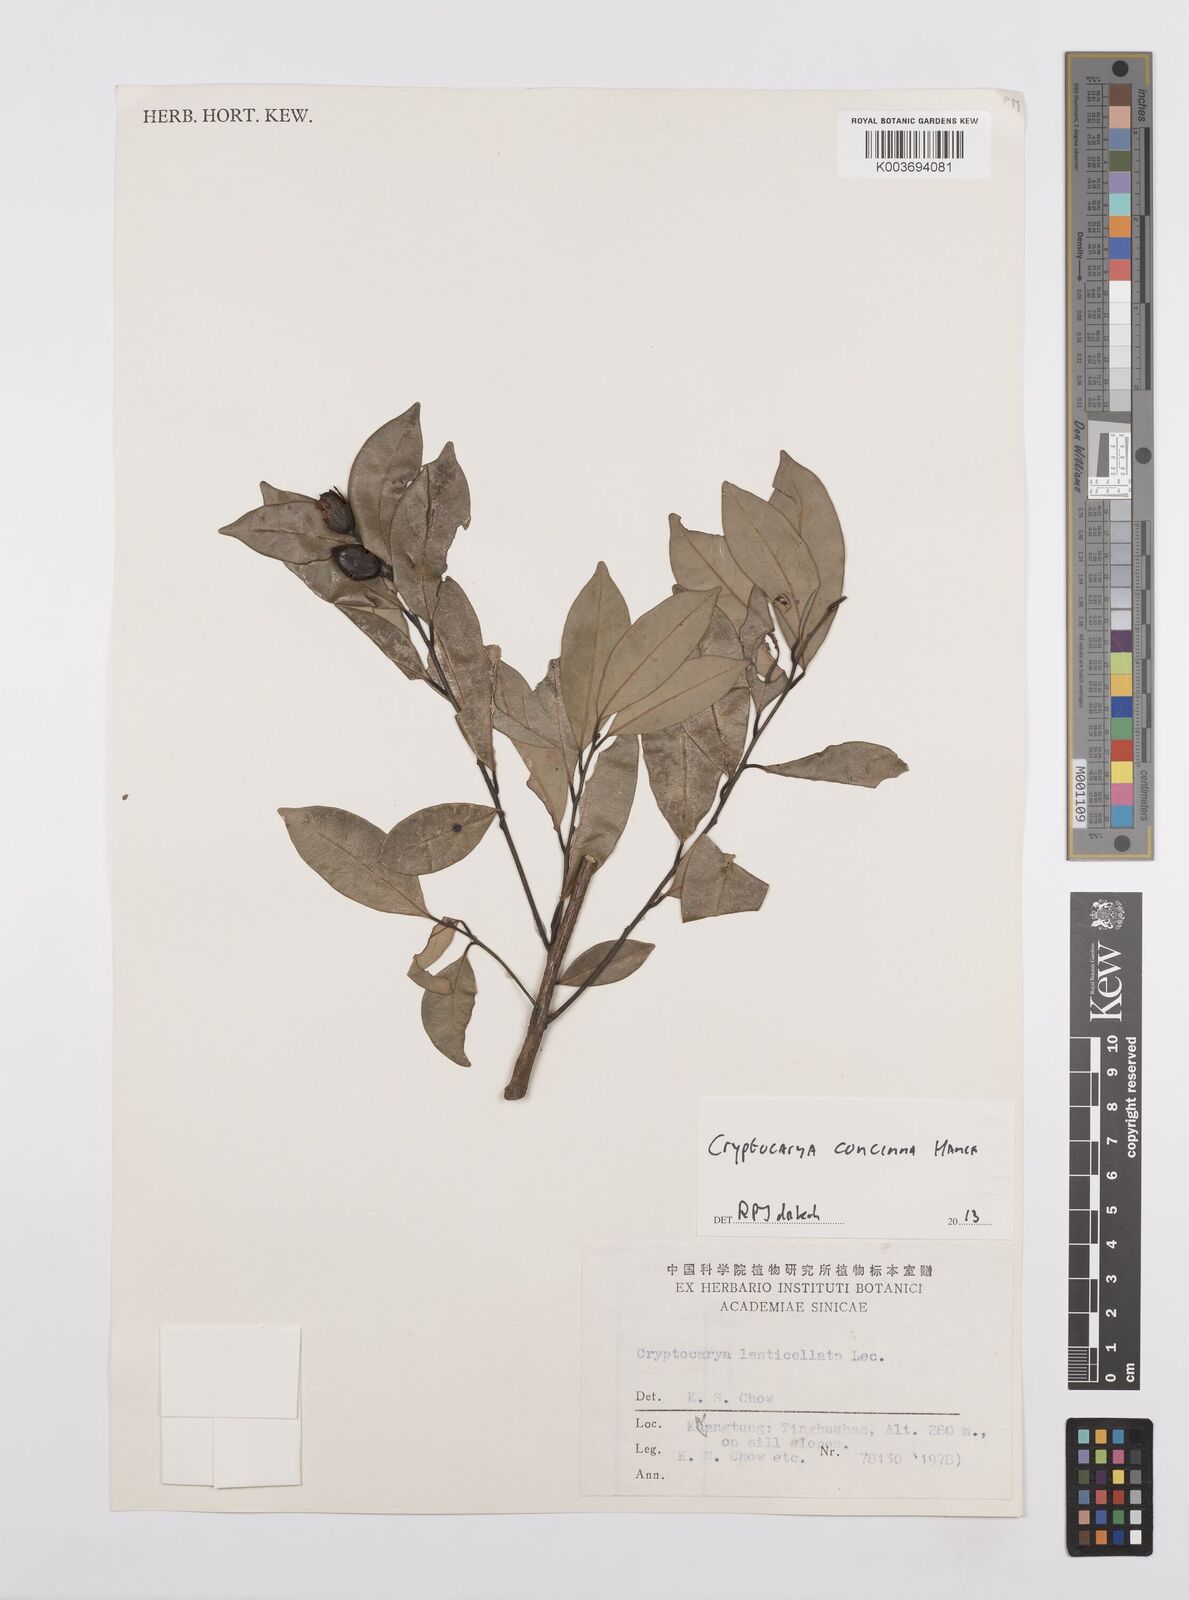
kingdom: Plantae
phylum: Tracheophyta
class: Magnoliopsida
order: Laurales
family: Lauraceae
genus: Cryptocarya
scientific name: Cryptocarya concinna
